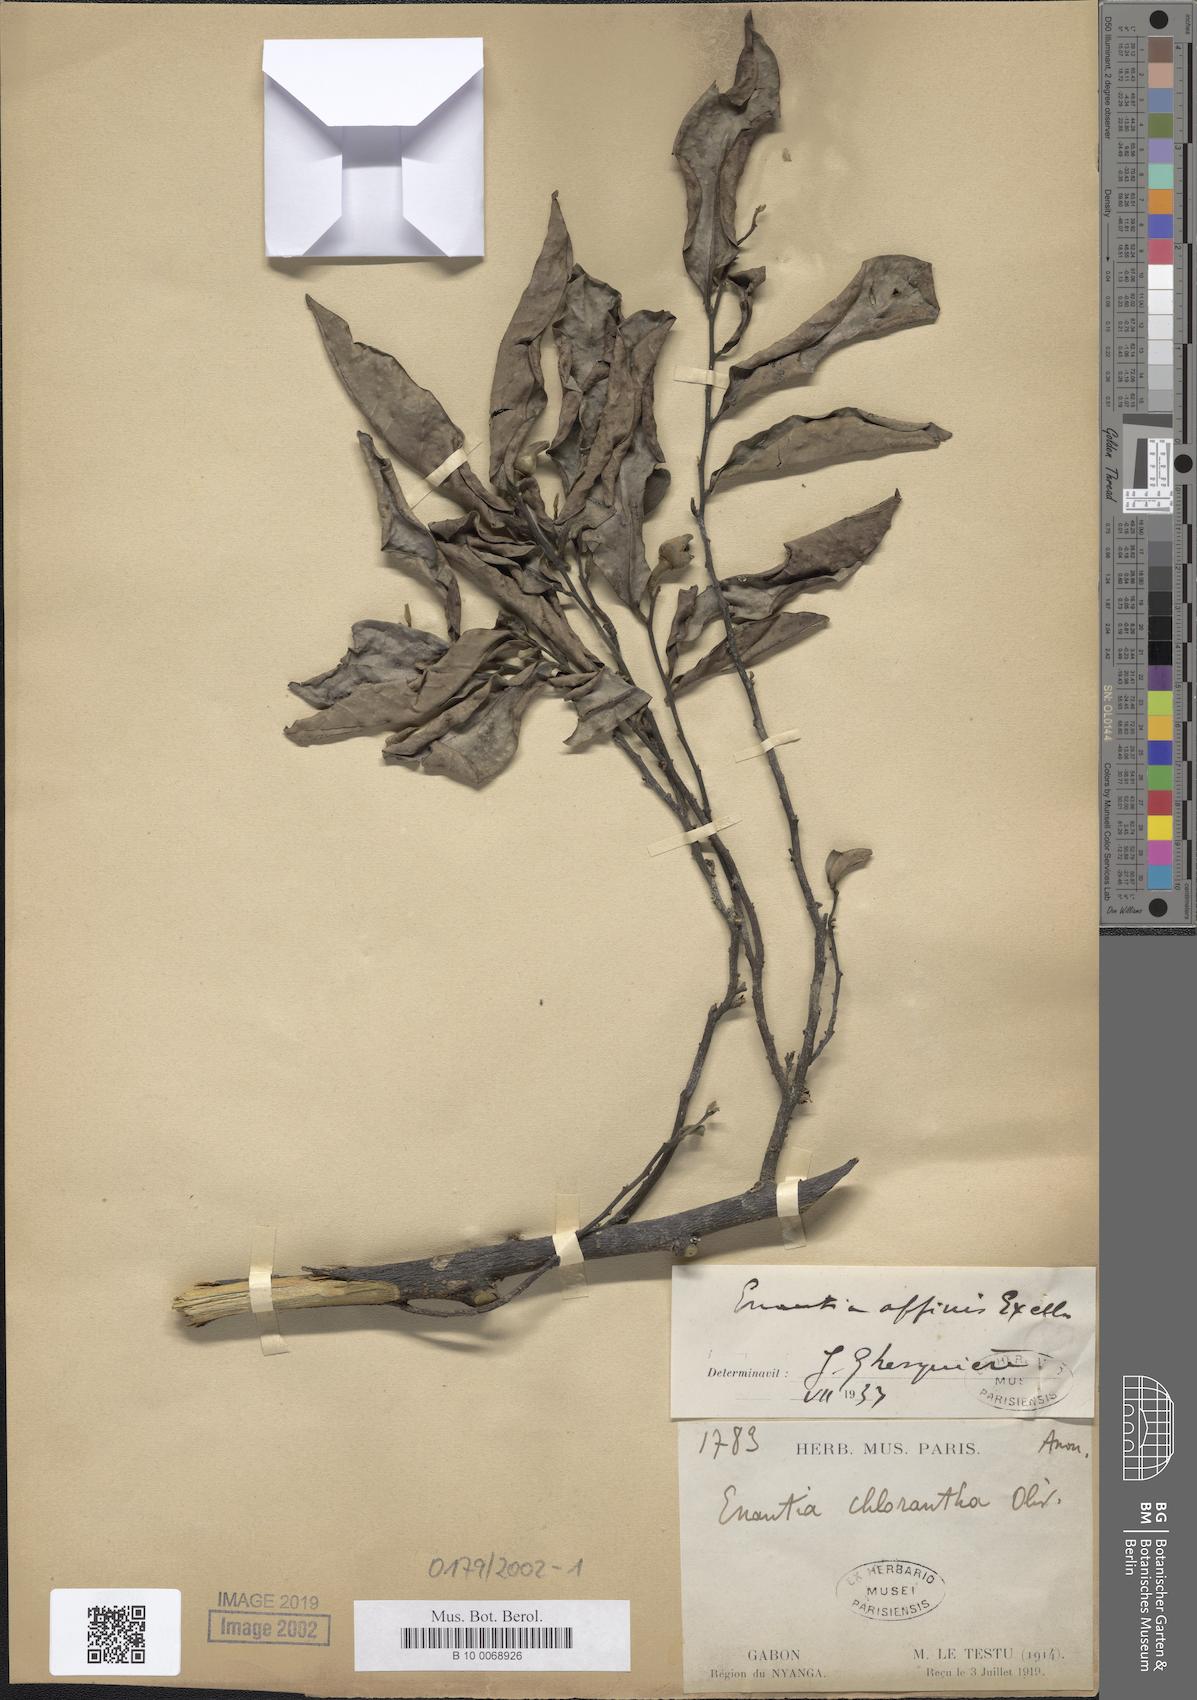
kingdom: Plantae
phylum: Tracheophyta
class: Magnoliopsida
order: Magnoliales
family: Annonaceae
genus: Annickia
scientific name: Annickia affinis
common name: African yellow wood
